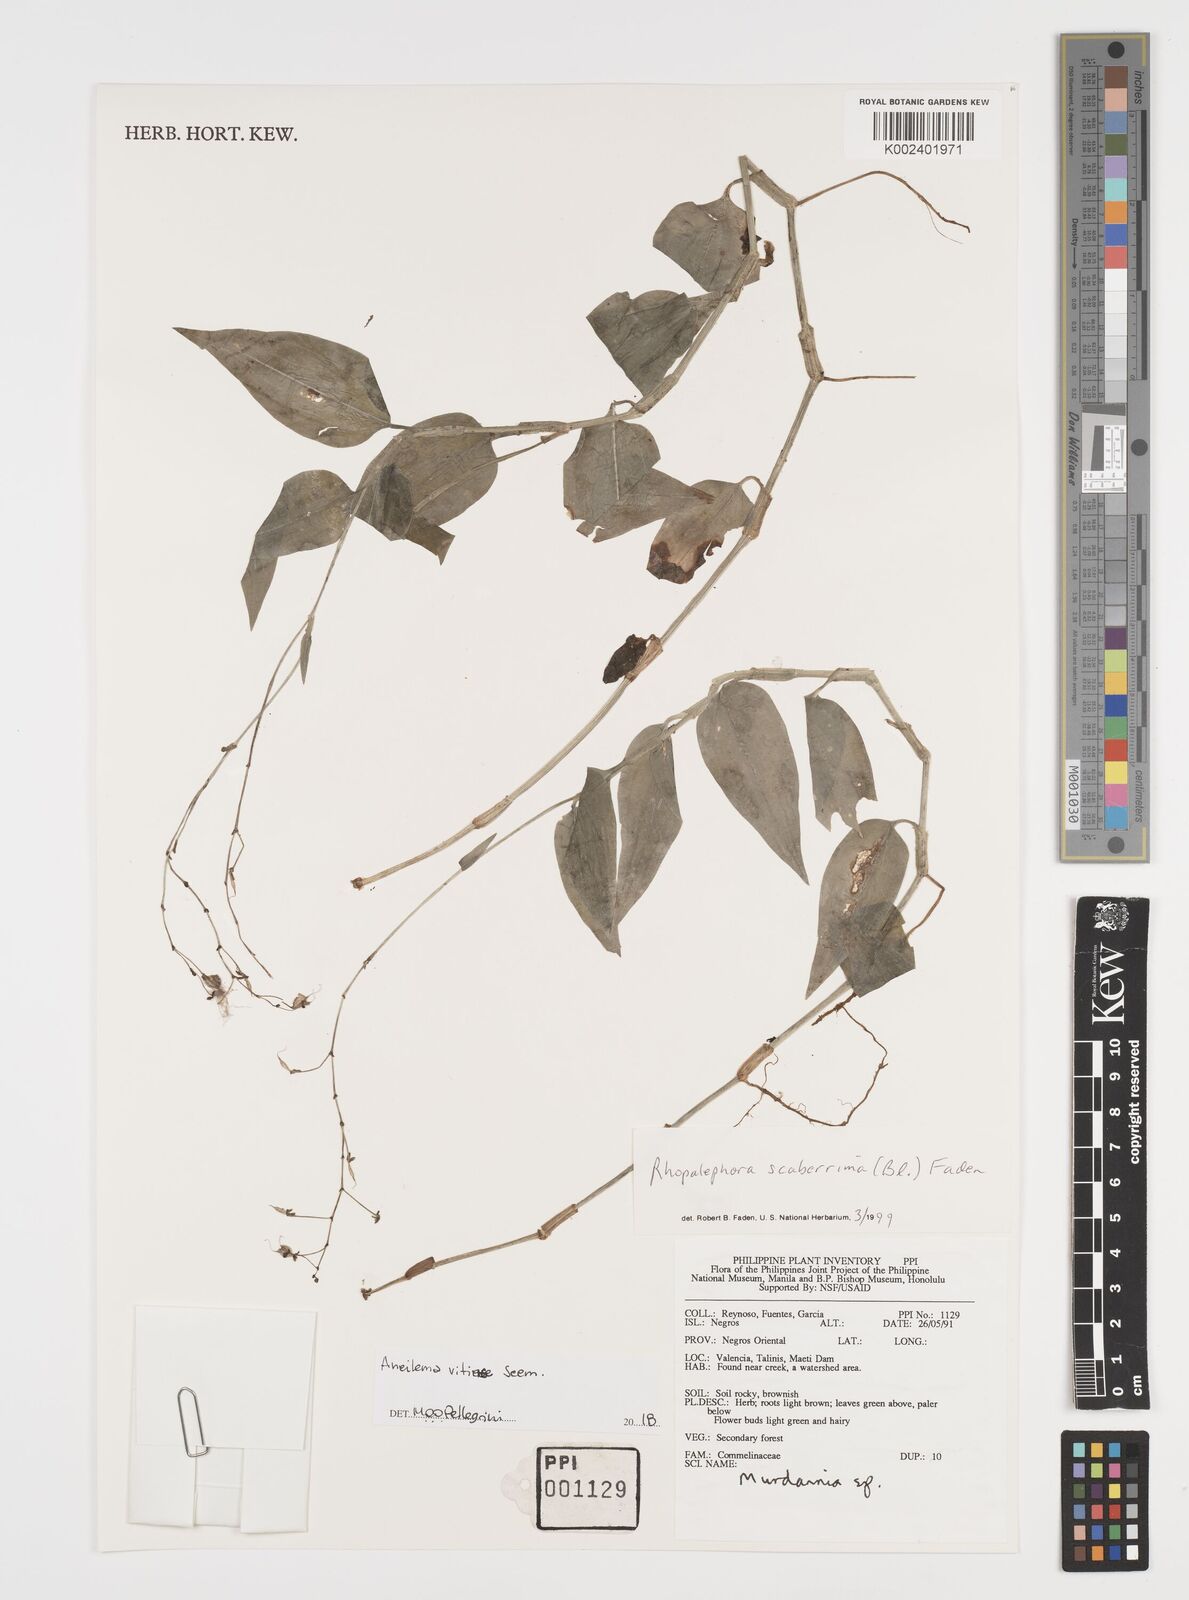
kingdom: Plantae
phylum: Tracheophyta
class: Liliopsida
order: Commelinales
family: Commelinaceae
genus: Rhopalephora
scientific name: Rhopalephora vitiensis
